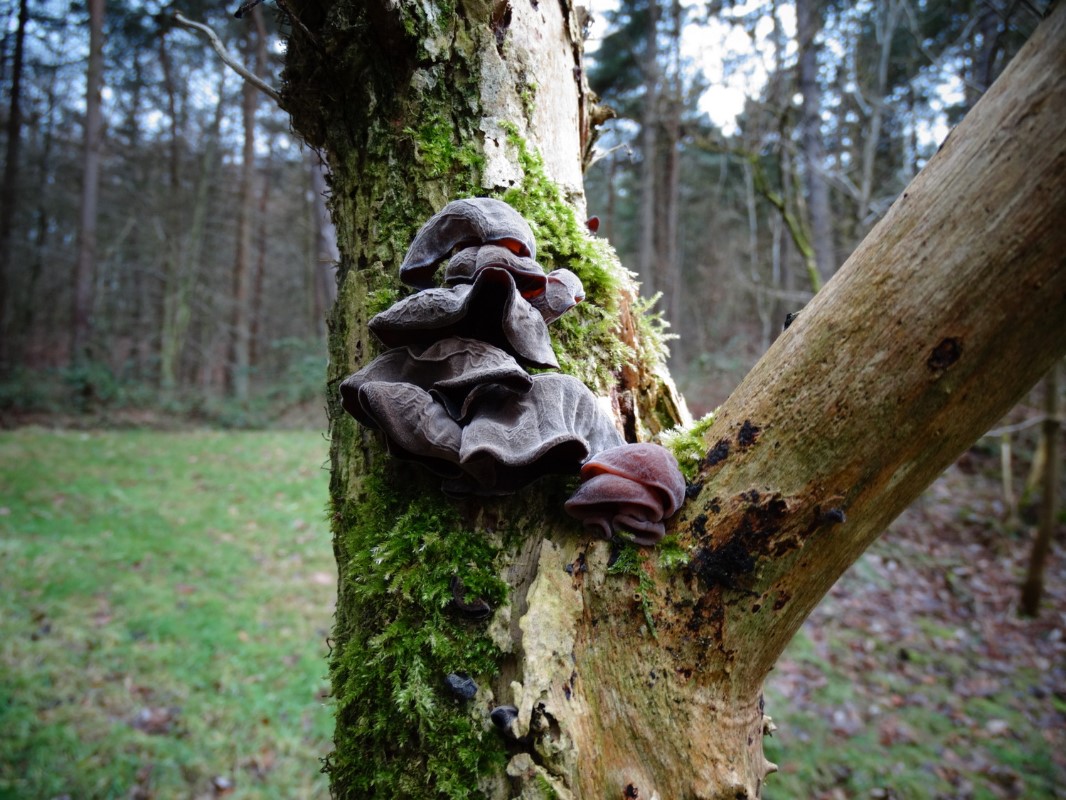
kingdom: Fungi
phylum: Basidiomycota
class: Agaricomycetes
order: Auriculariales
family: Auriculariaceae
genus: Auricularia
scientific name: Auricularia auricula-judae
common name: almindelig judasøre
